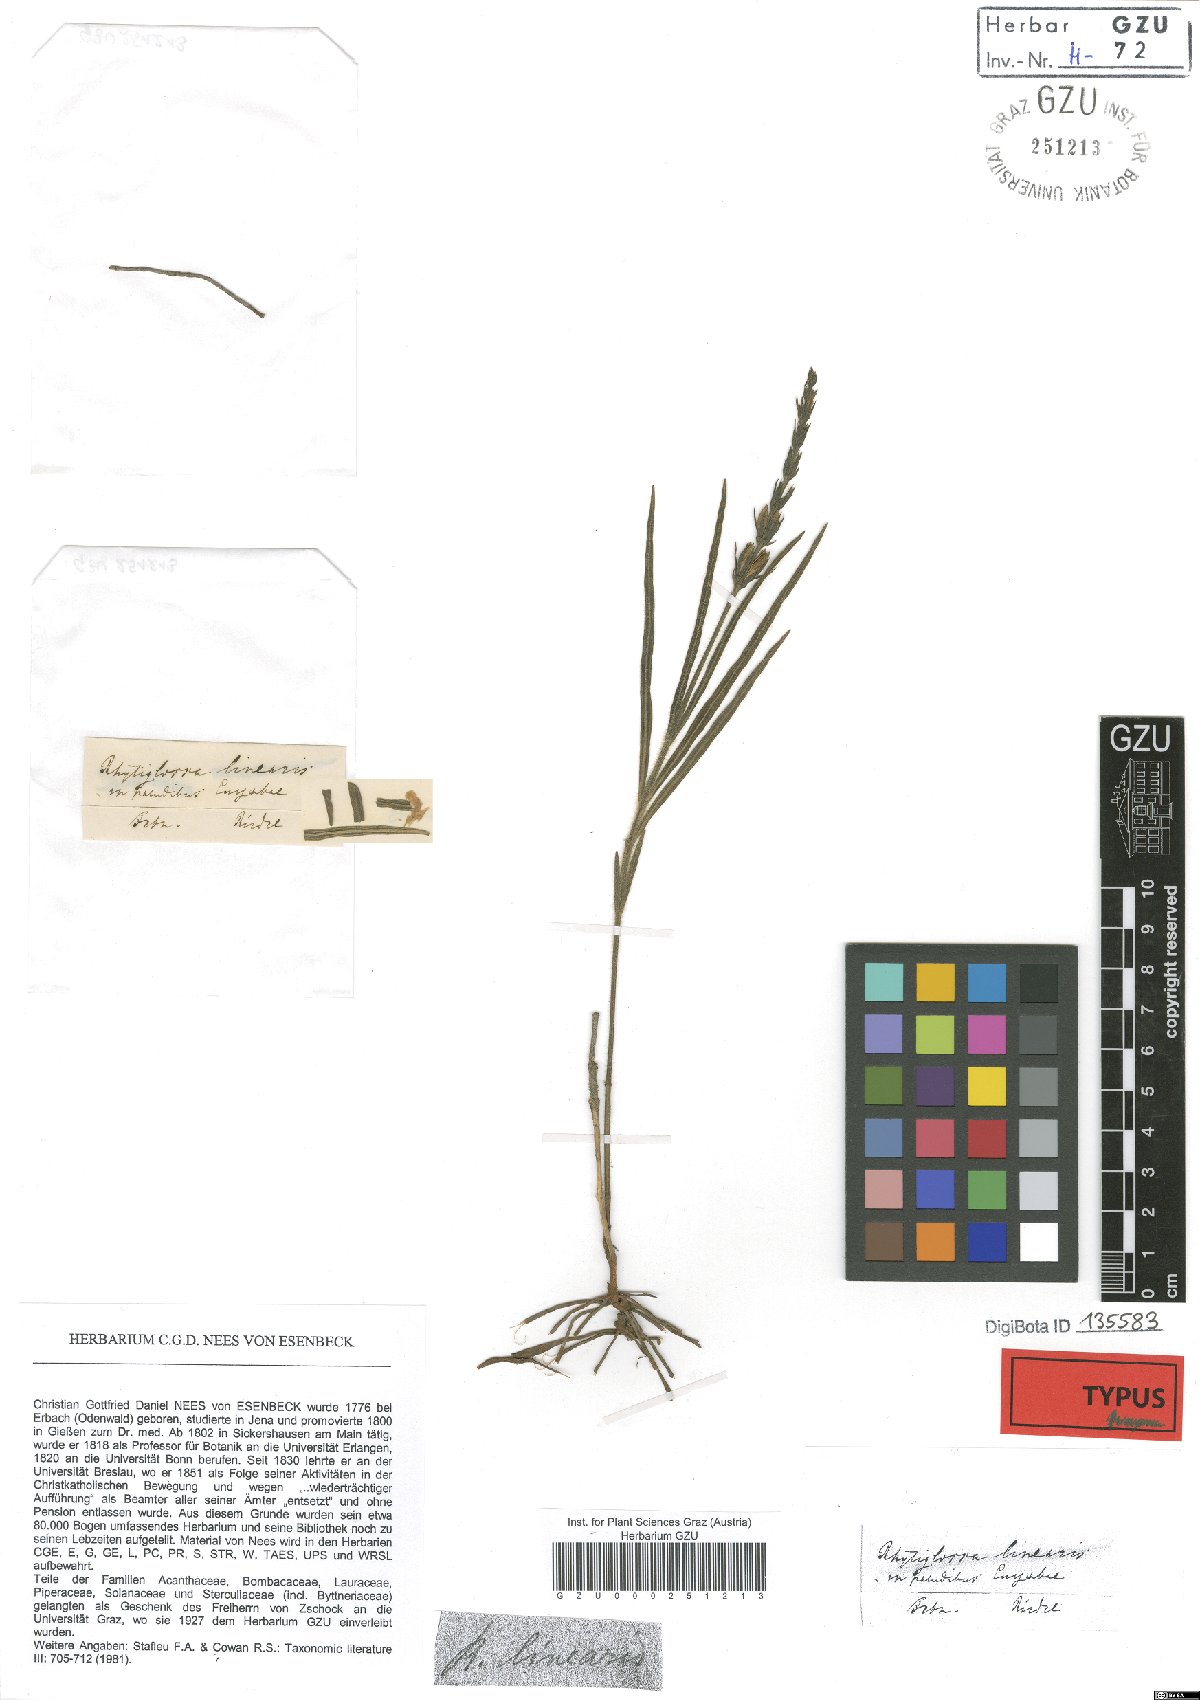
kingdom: Plantae
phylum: Tracheophyta
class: Magnoliopsida
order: Lamiales
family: Acanthaceae
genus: Dianthera
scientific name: Dianthera polygaloides
